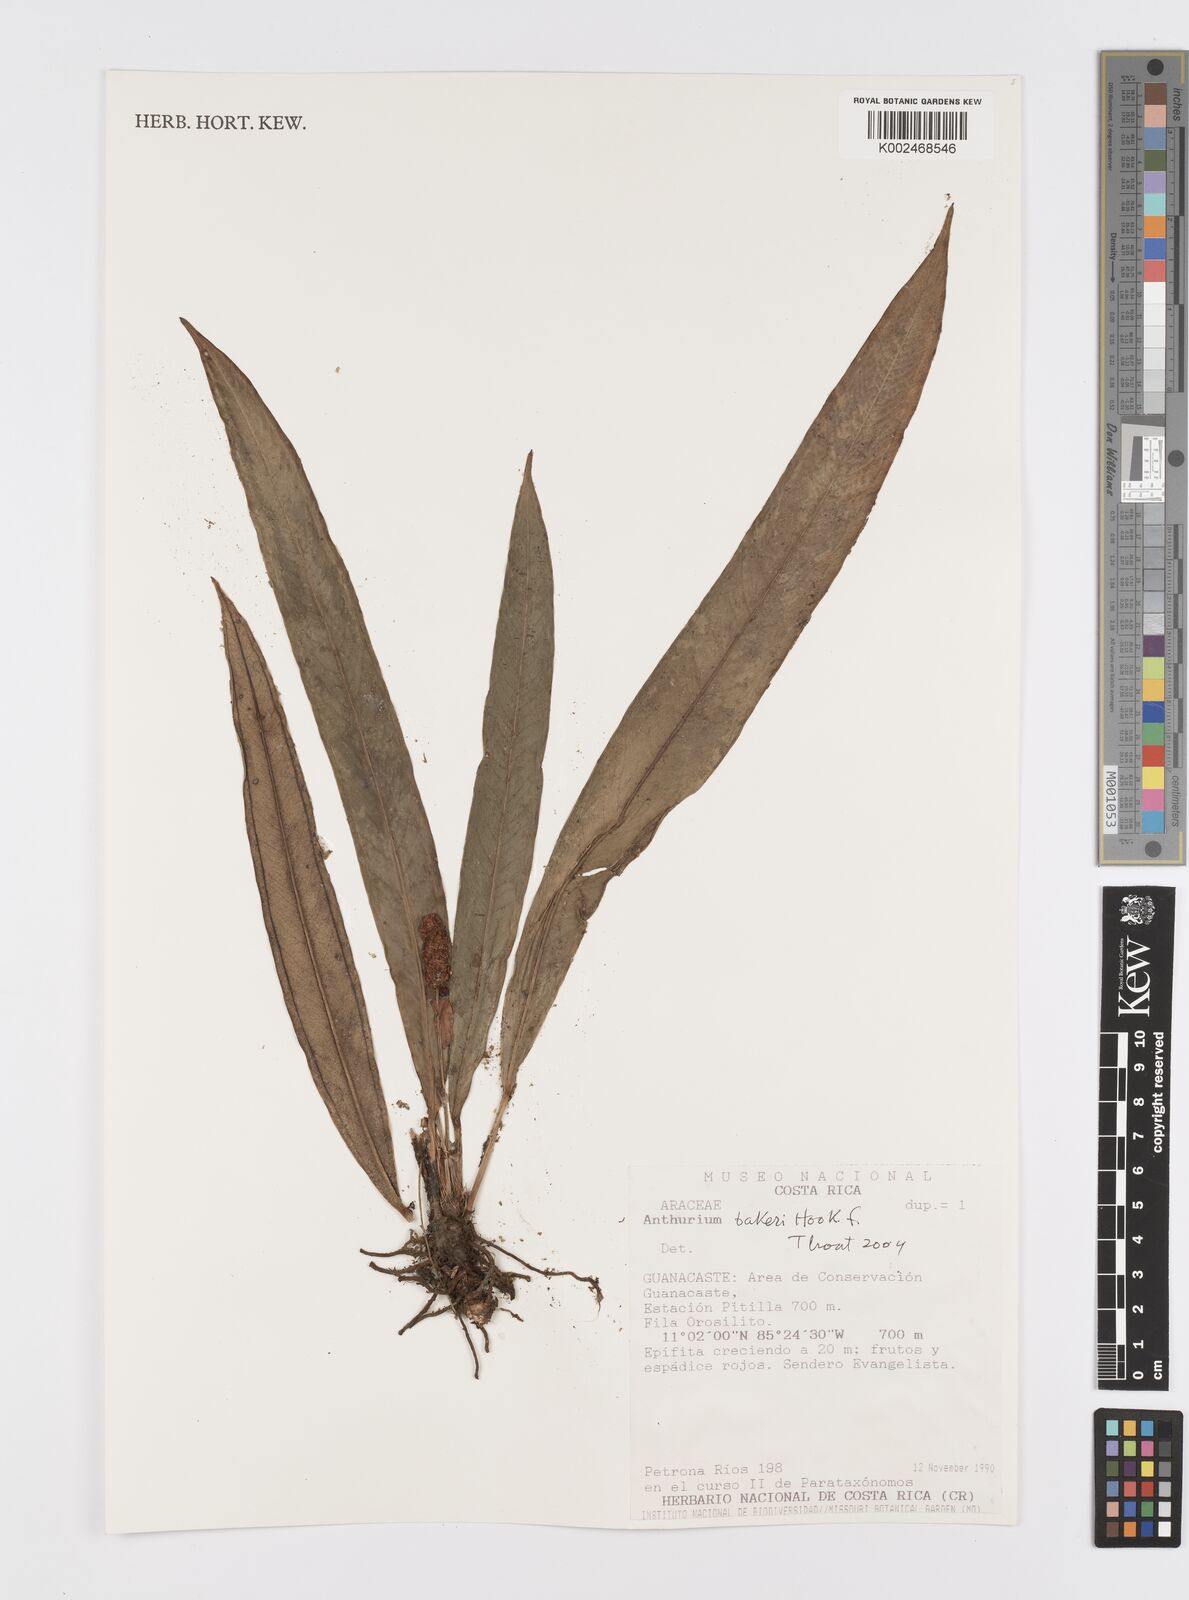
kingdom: Plantae
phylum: Tracheophyta
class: Liliopsida
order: Alismatales
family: Araceae
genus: Anthurium
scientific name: Anthurium bakeri
